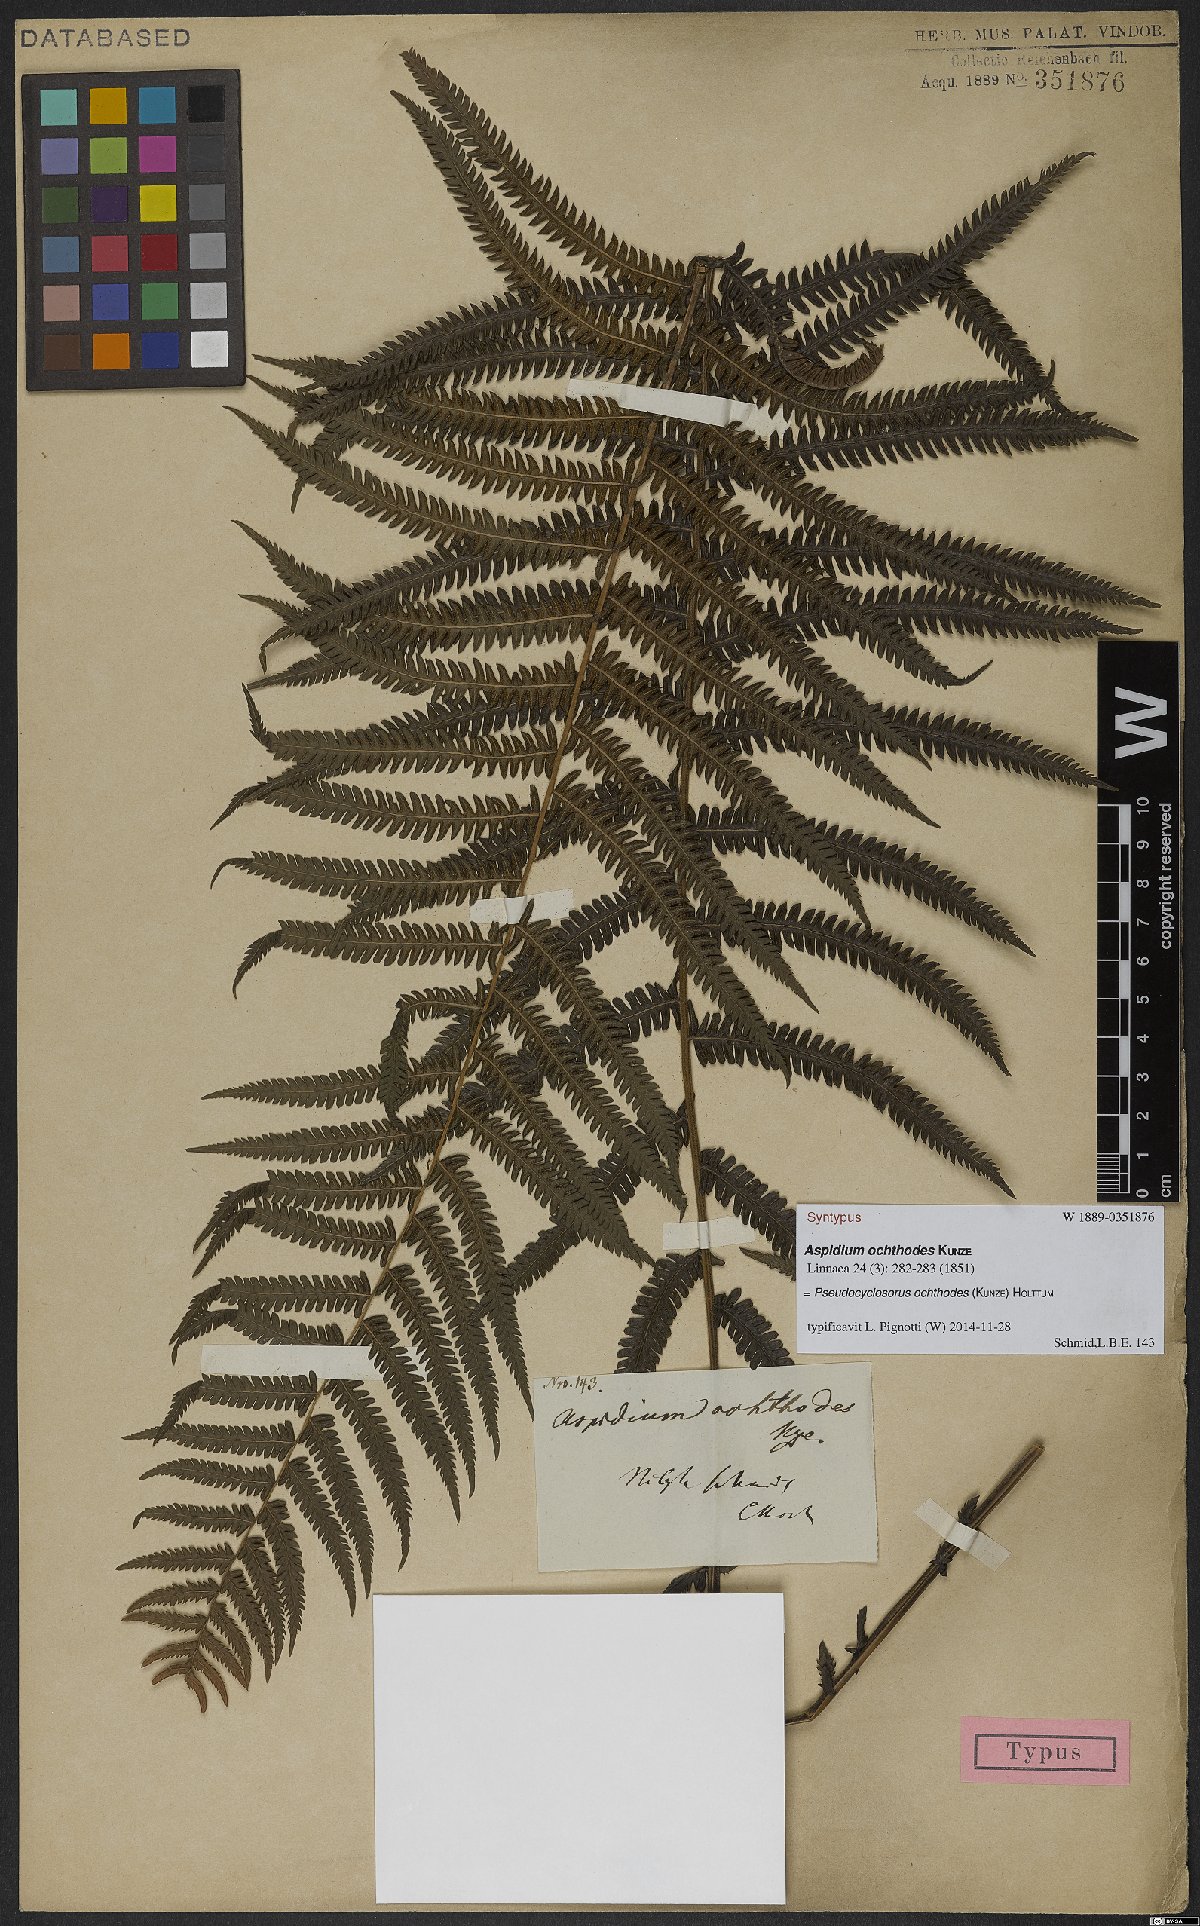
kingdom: Plantae
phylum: Tracheophyta
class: Polypodiopsida
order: Polypodiales
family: Thelypteridaceae
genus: Pseudocyclosorus
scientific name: Pseudocyclosorus ochthodes
